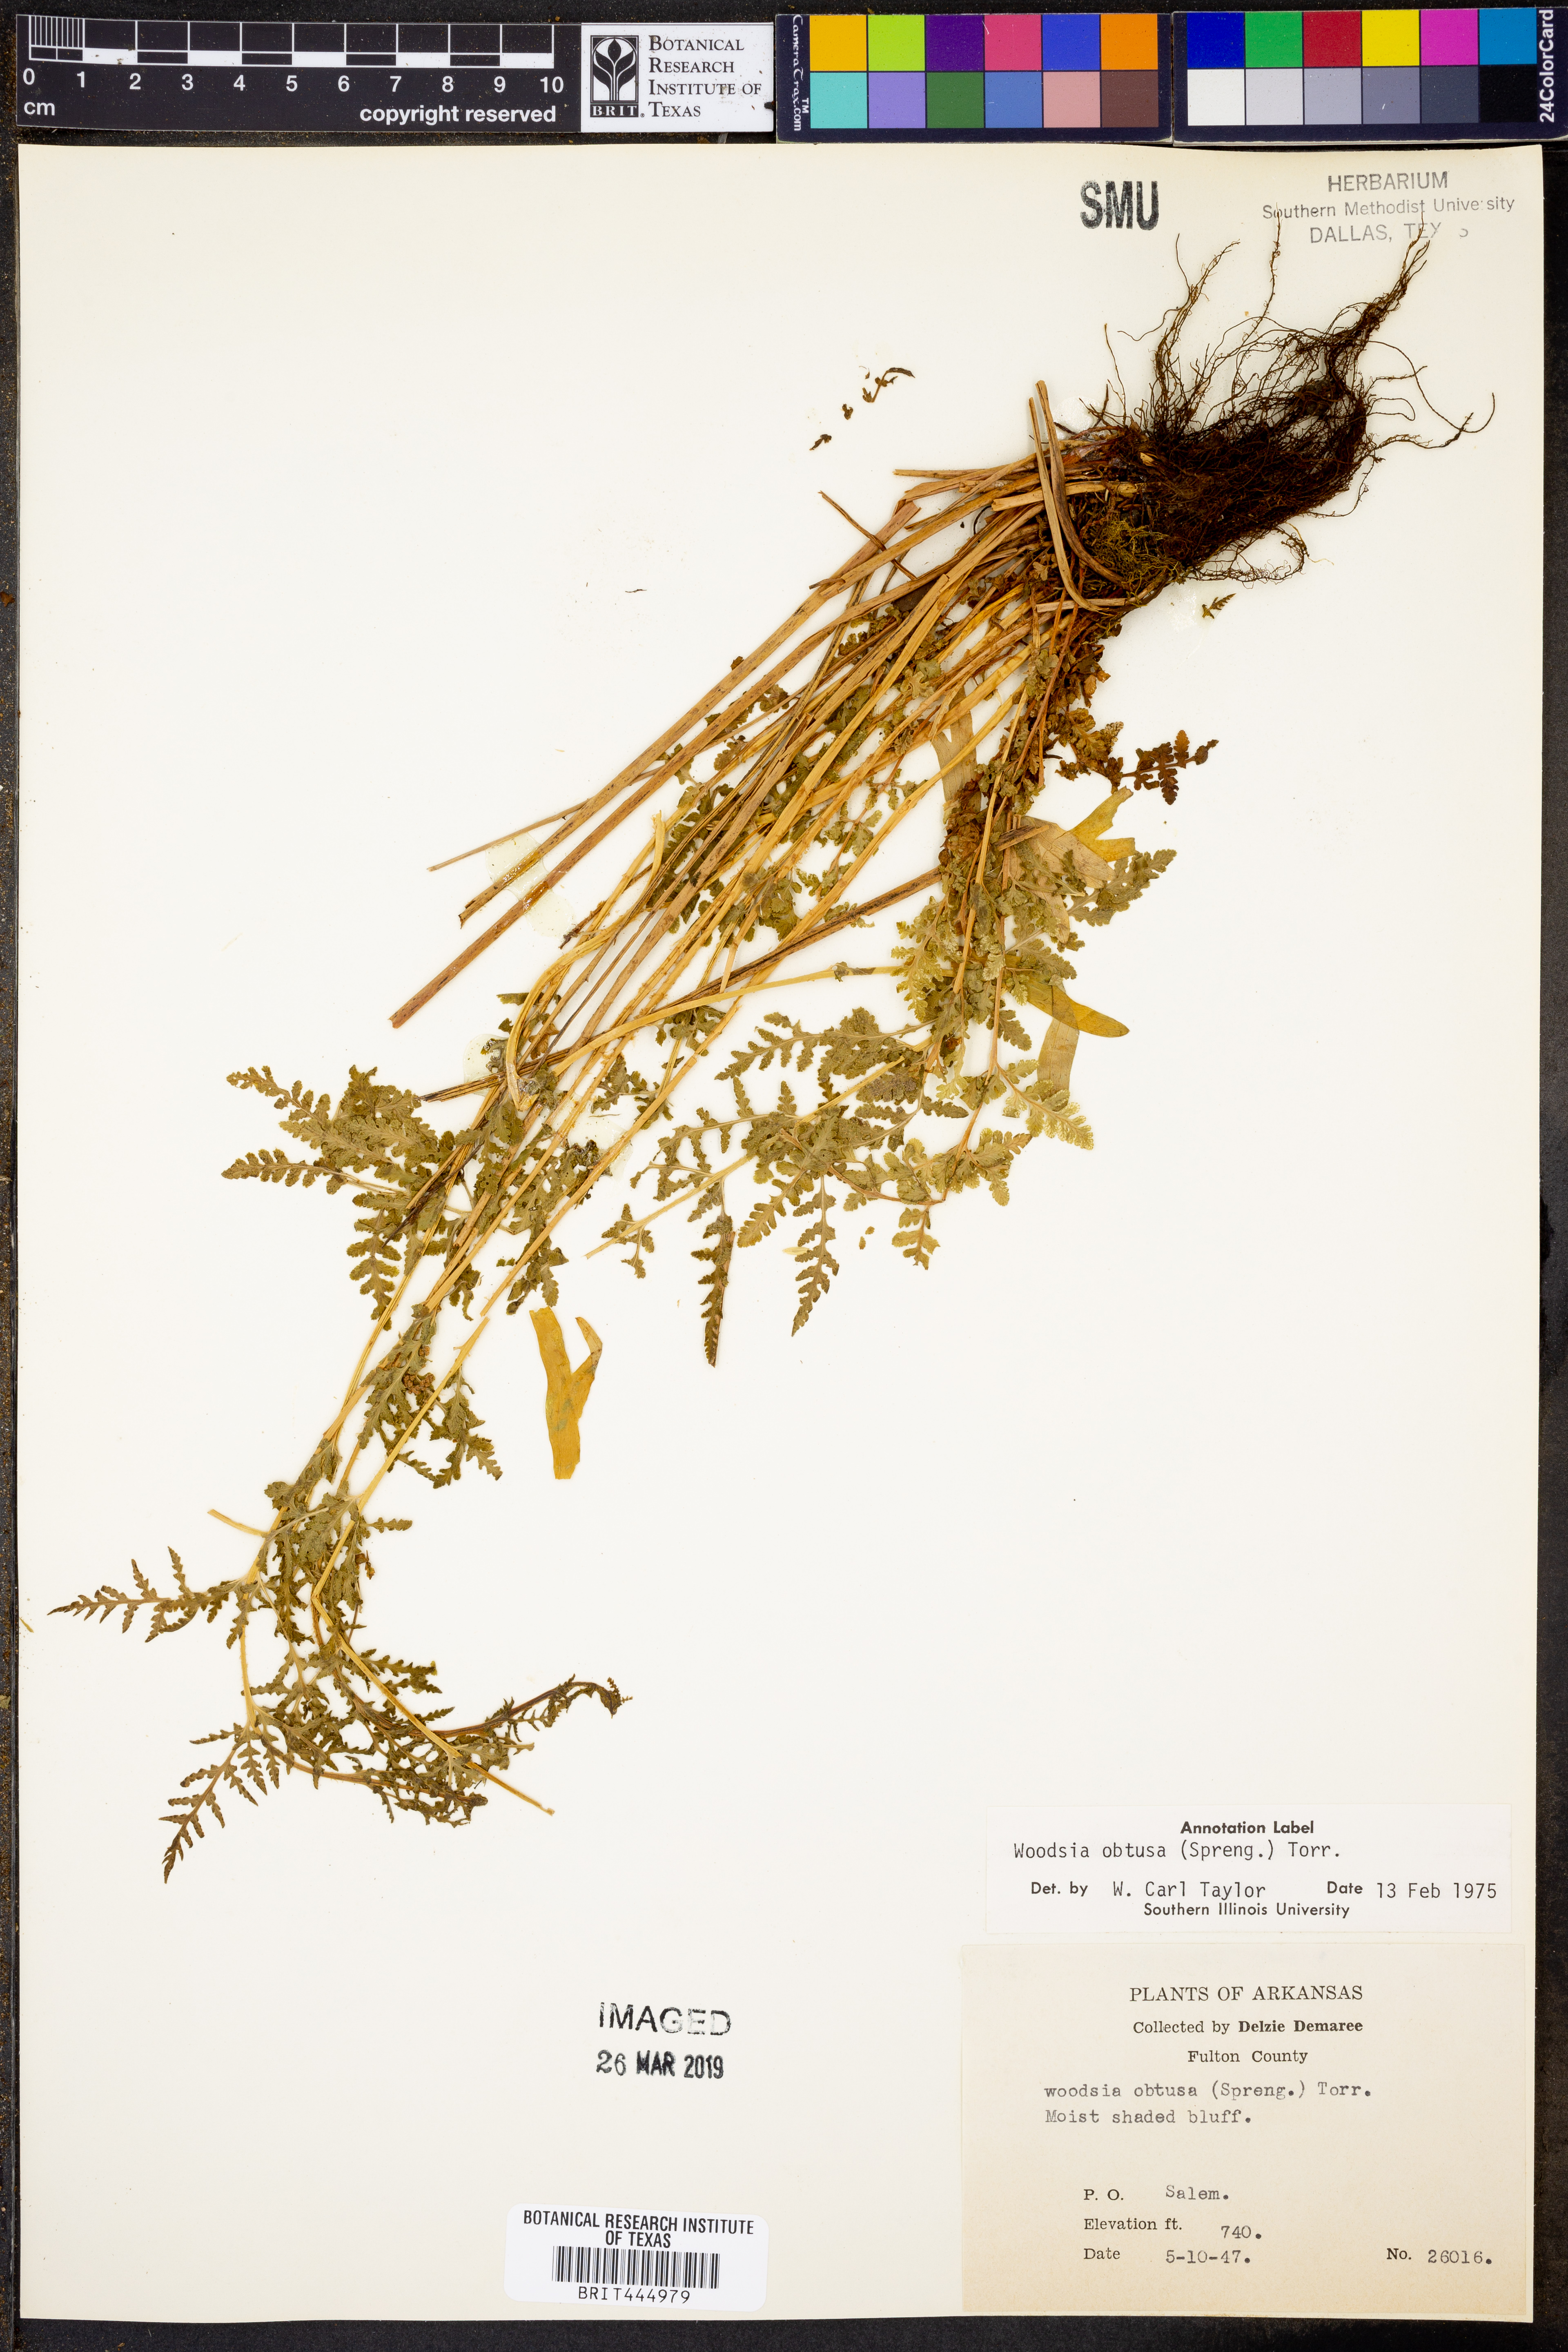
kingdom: Plantae
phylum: Tracheophyta
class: Polypodiopsida
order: Polypodiales
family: Woodsiaceae
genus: Physematium
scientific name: Physematium obtusum
